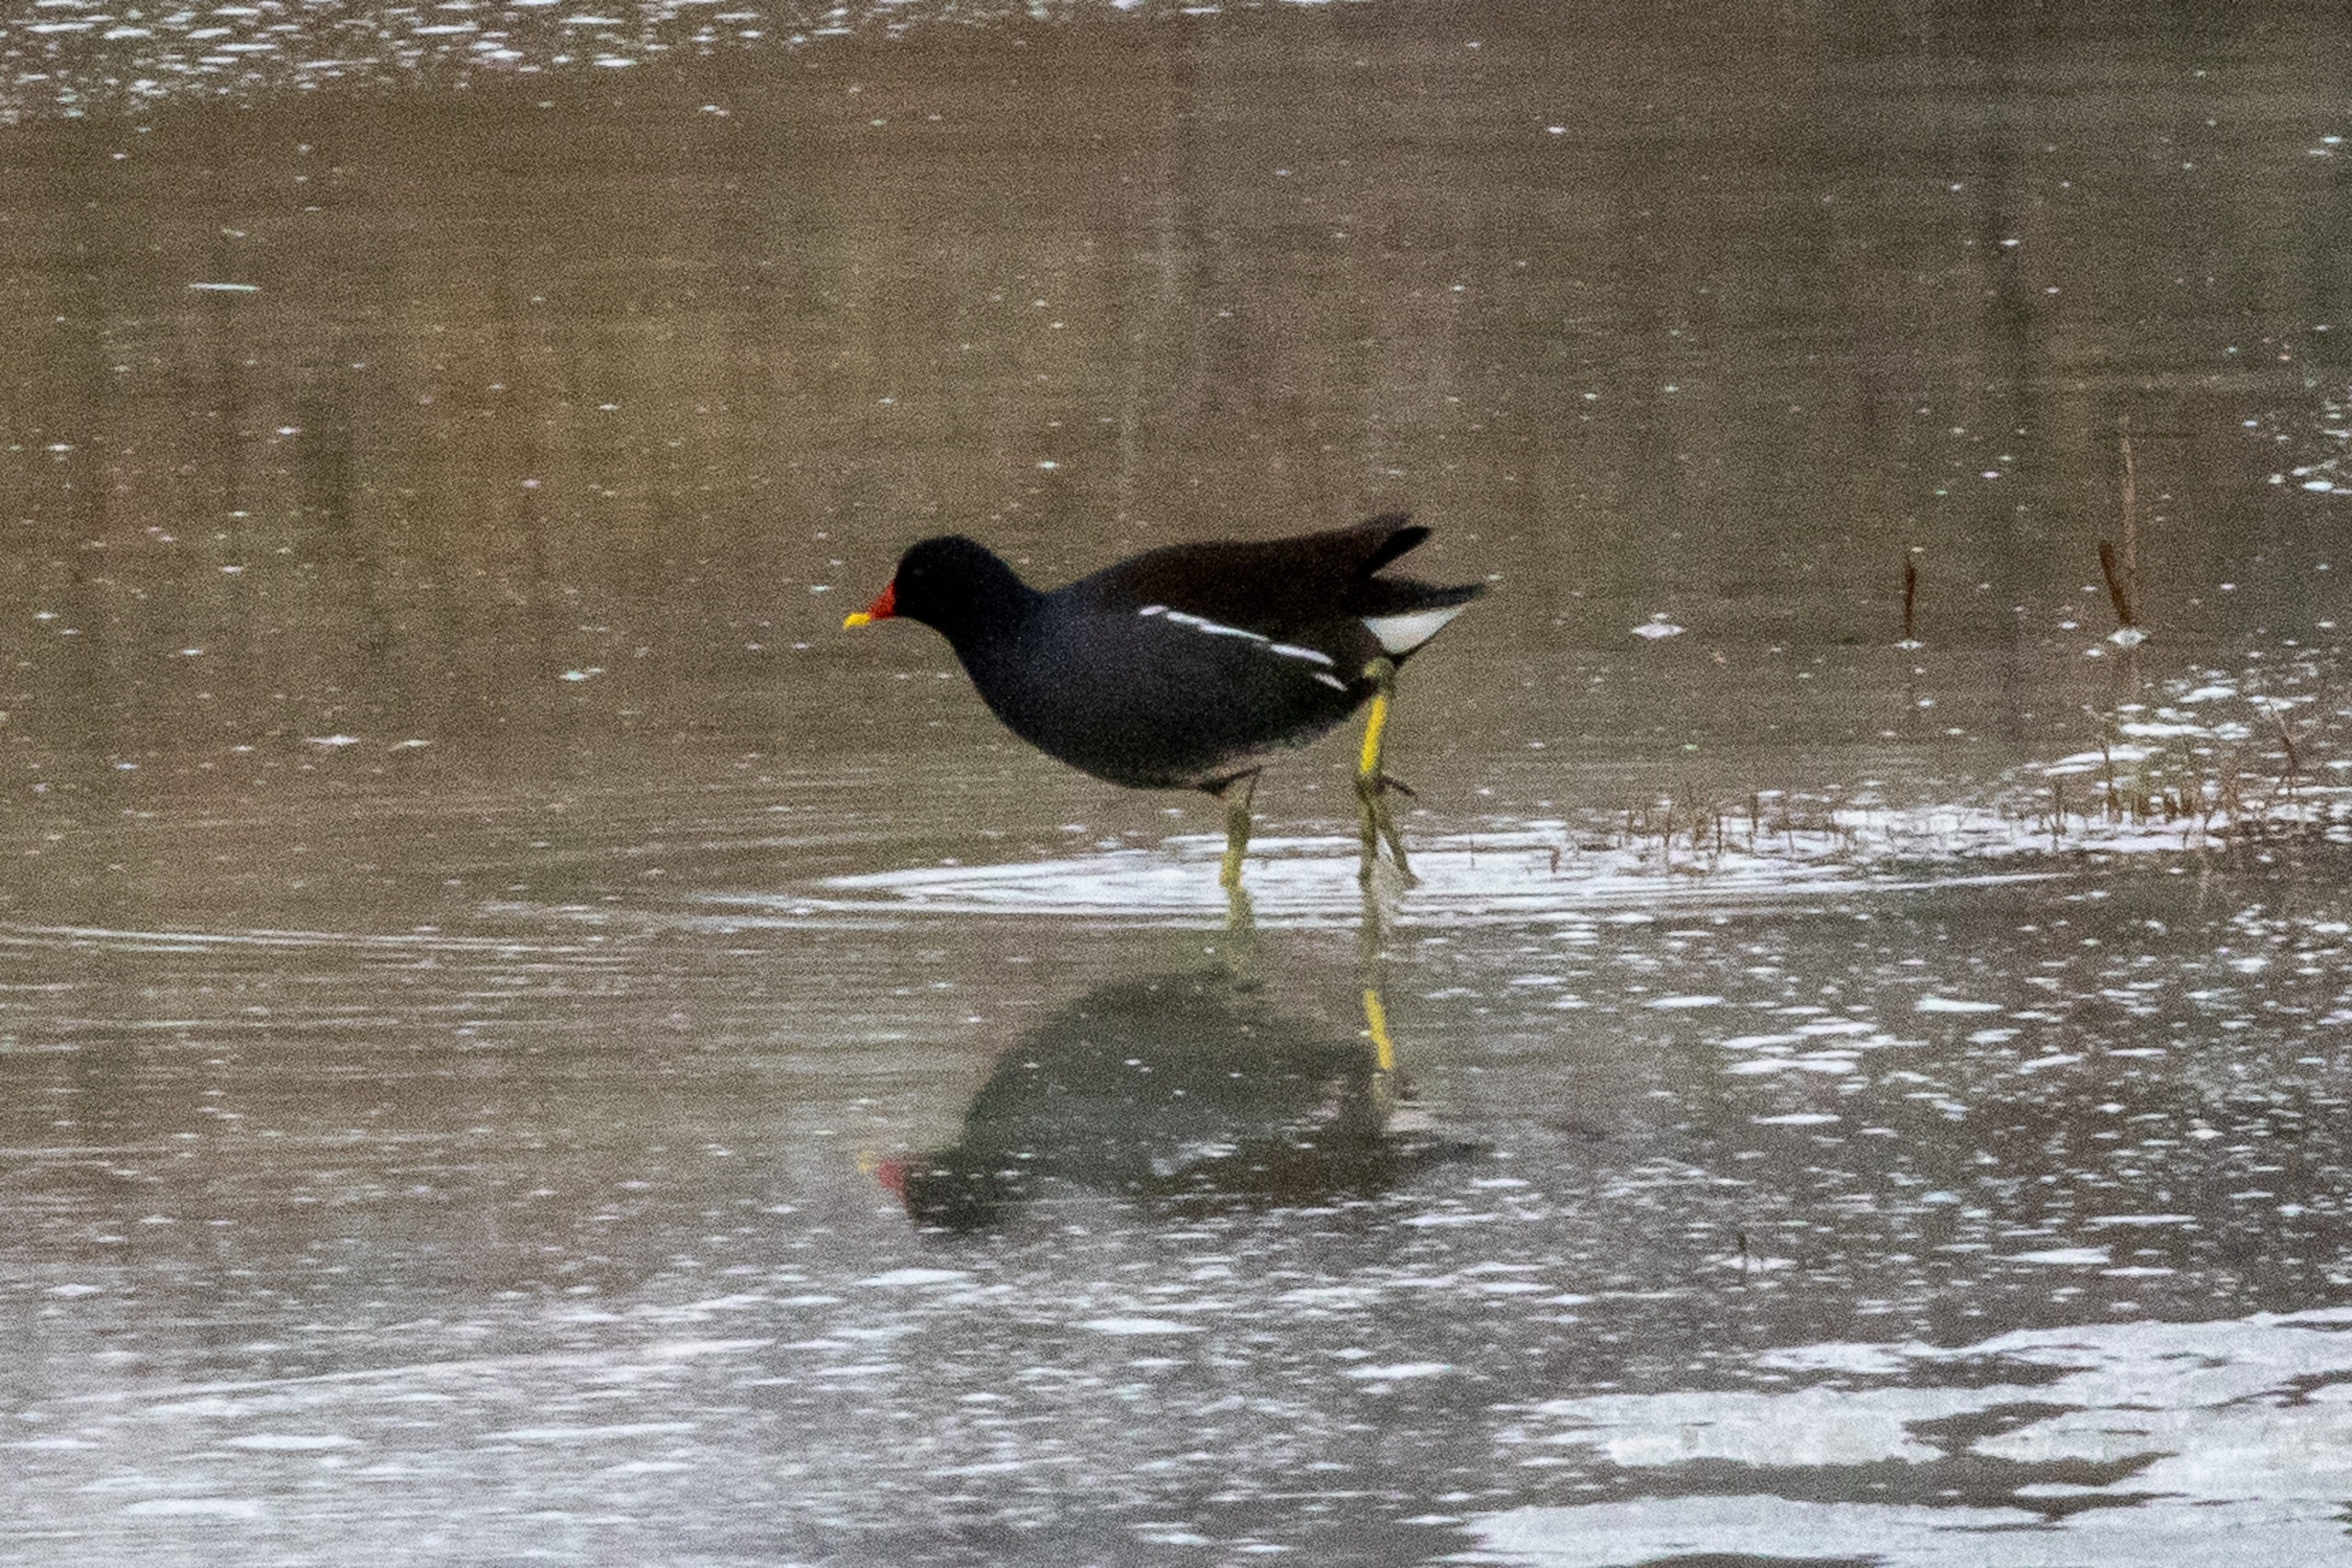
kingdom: Animalia
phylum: Chordata
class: Aves
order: Gruiformes
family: Rallidae
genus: Gallinula
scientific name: Gallinula chloropus
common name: Grønbenet rørhøne
